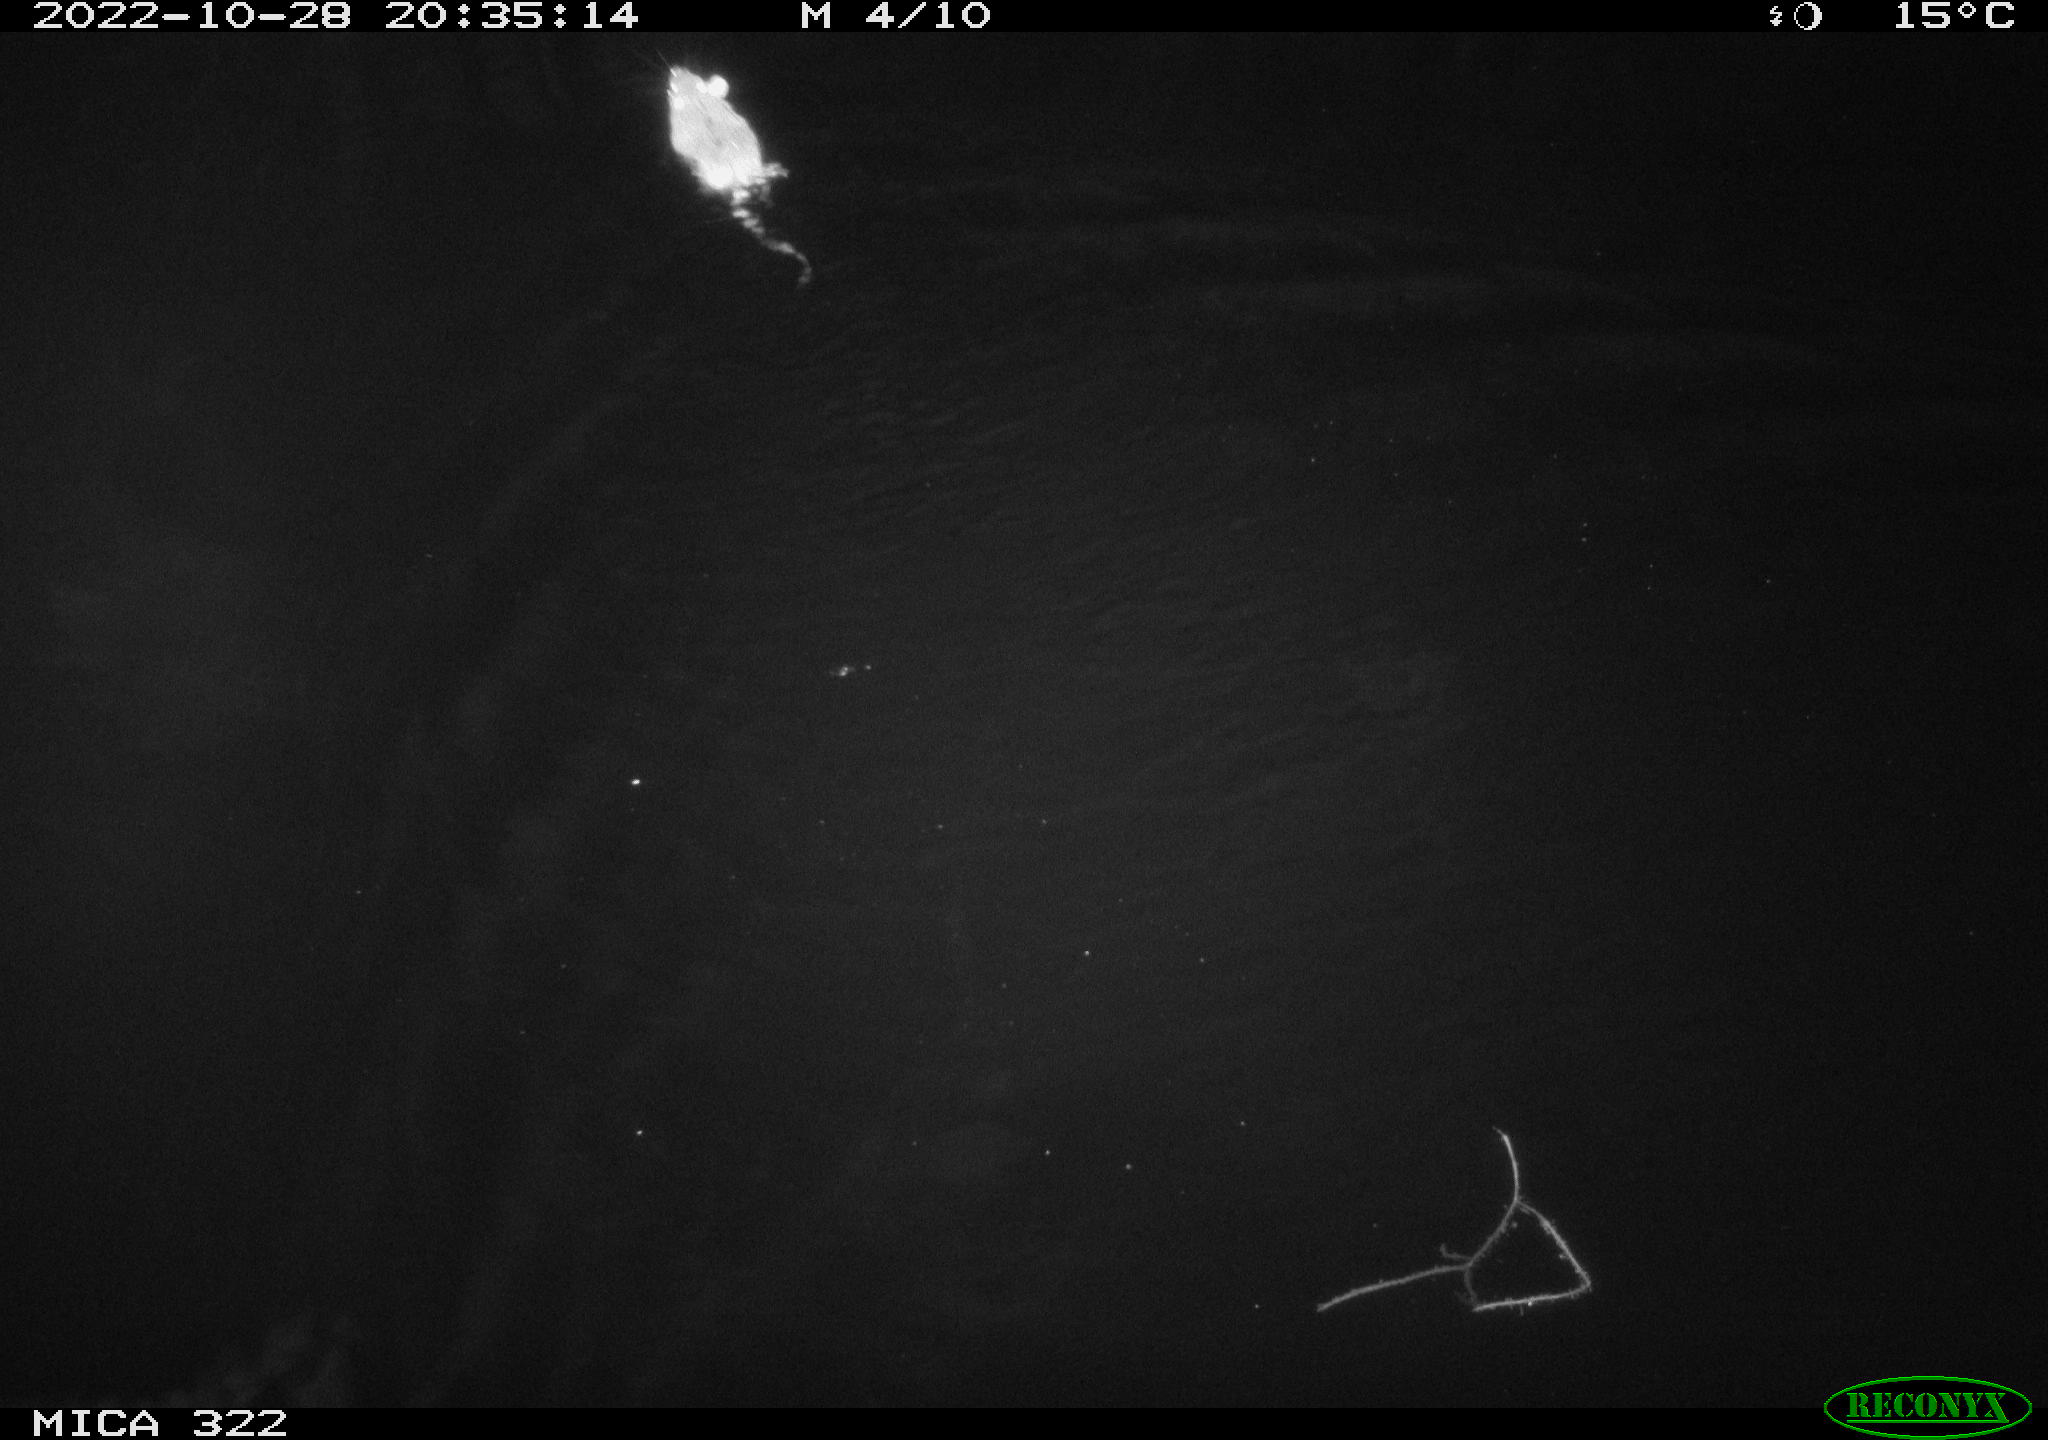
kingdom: Animalia
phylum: Chordata
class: Mammalia
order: Rodentia
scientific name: Rodentia
